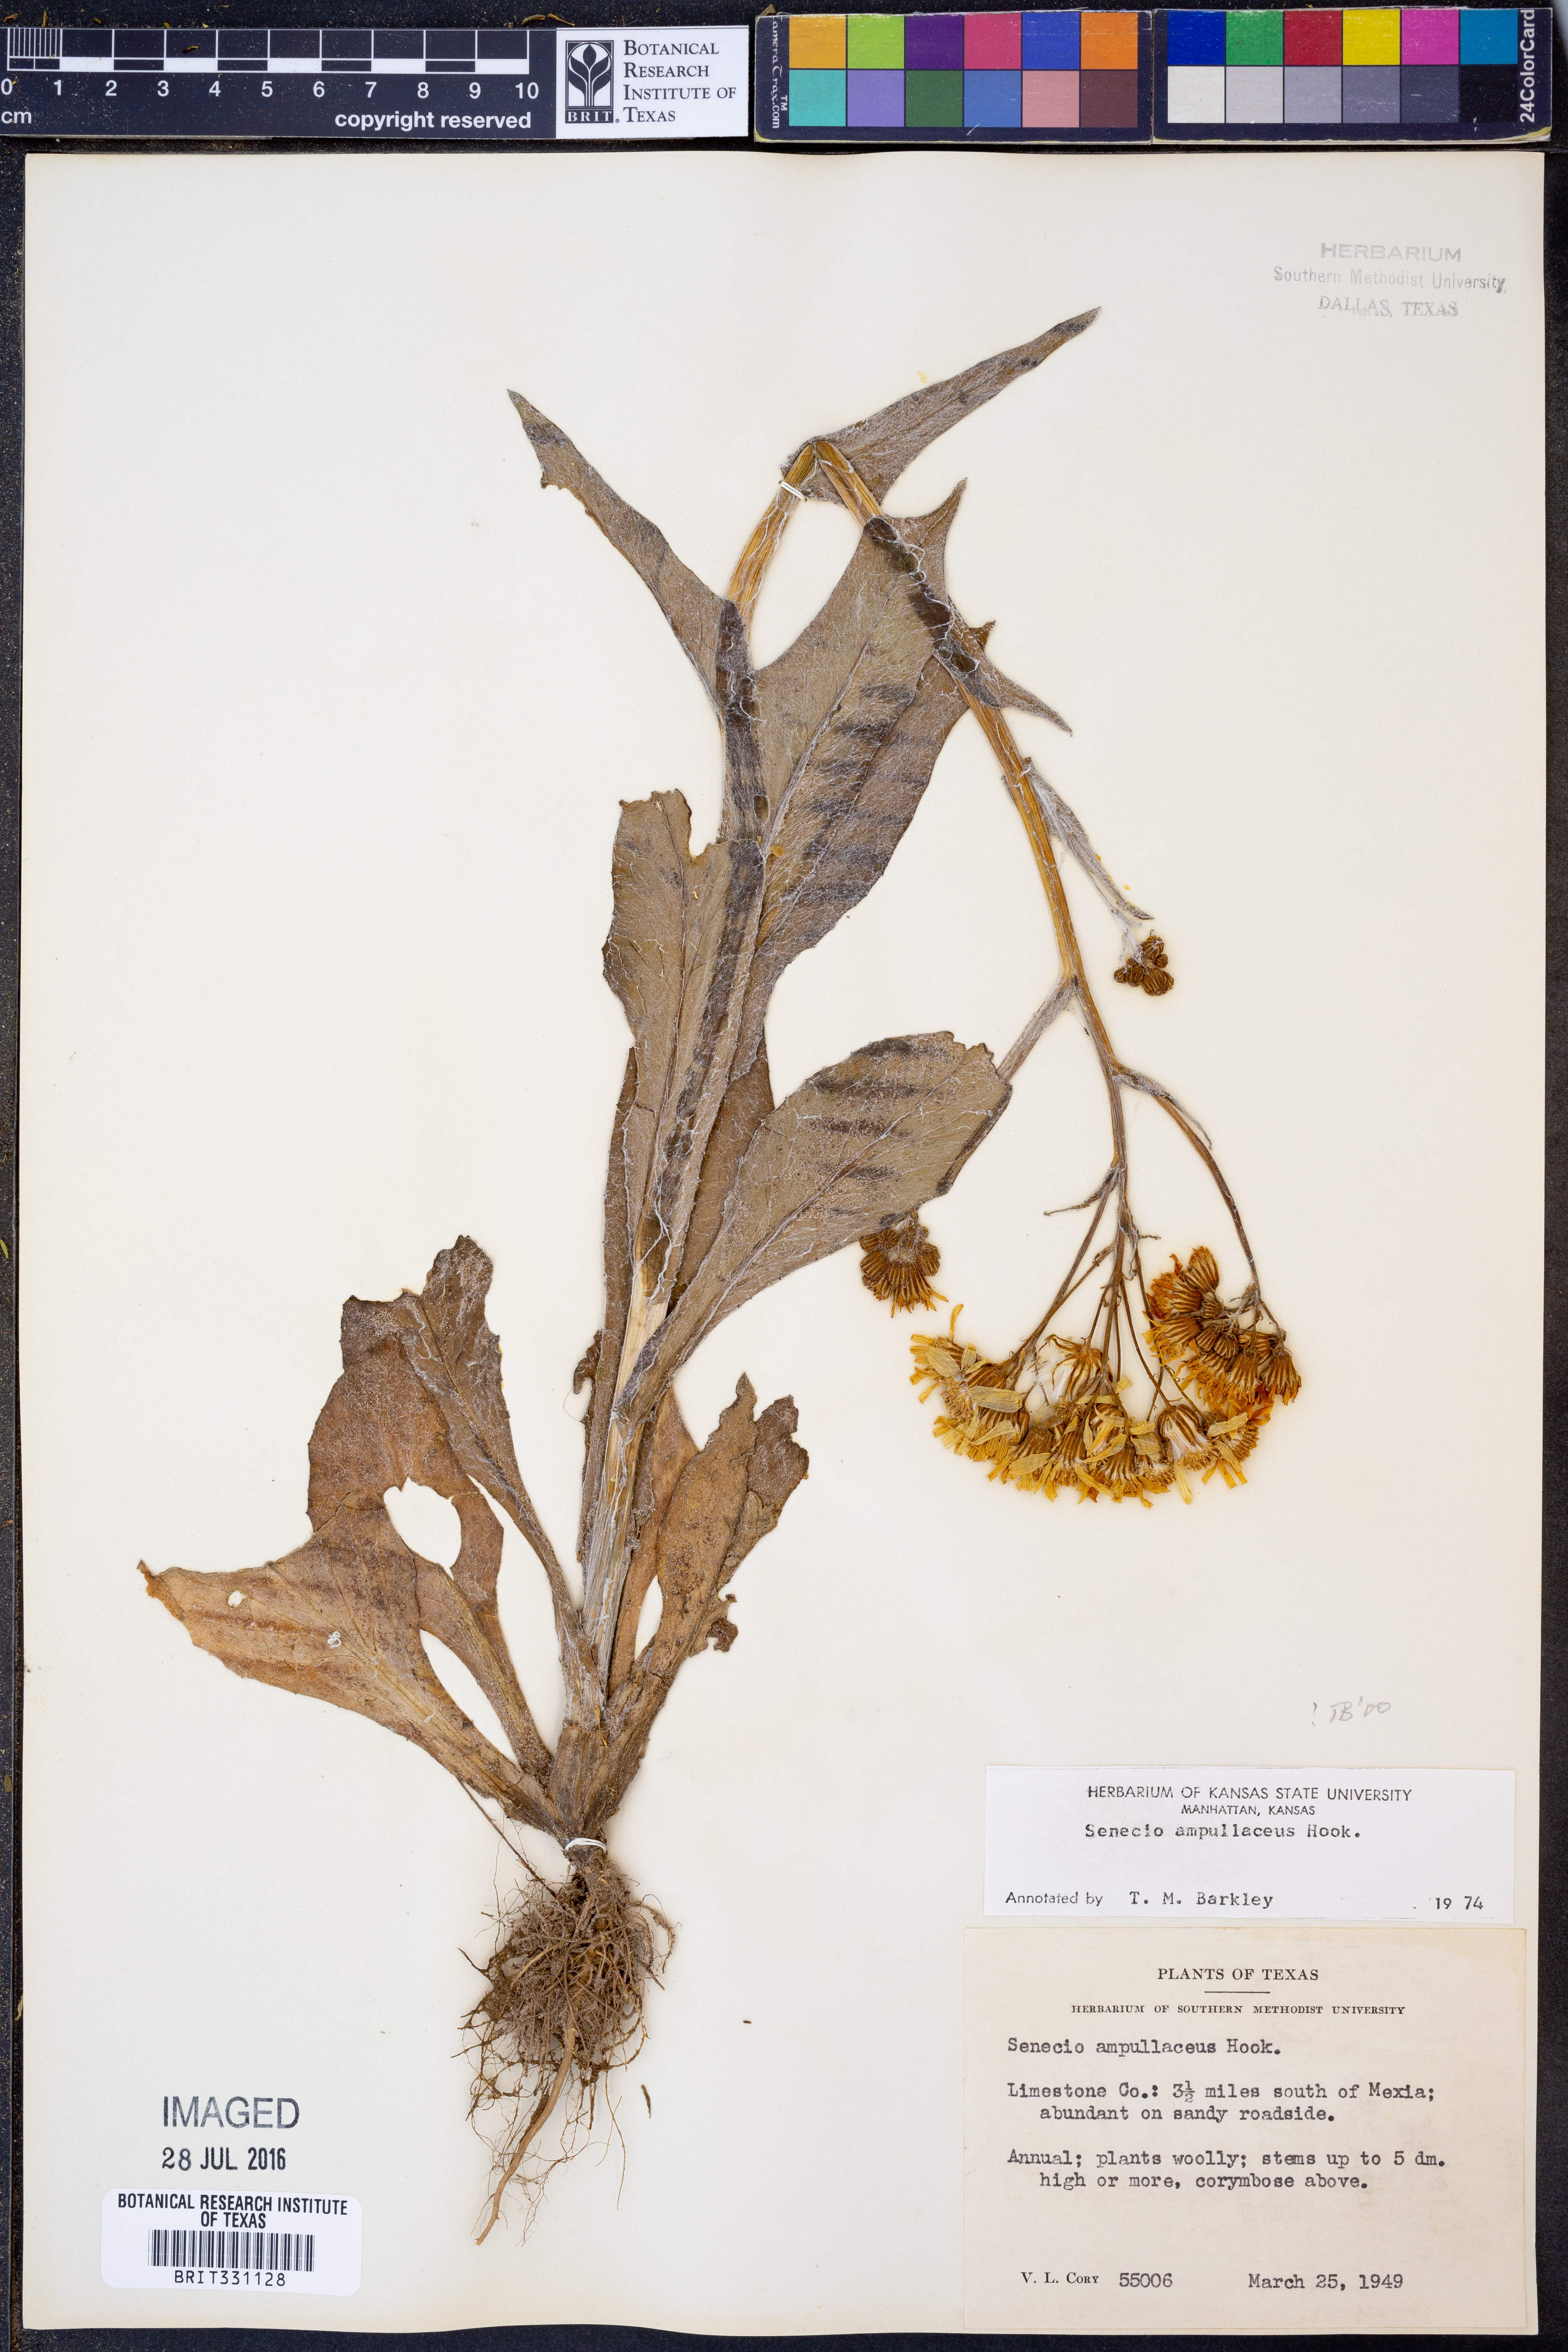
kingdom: Plantae
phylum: Tracheophyta
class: Magnoliopsida
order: Asterales
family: Asteraceae
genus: Senecio
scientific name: Senecio ampullaceus
